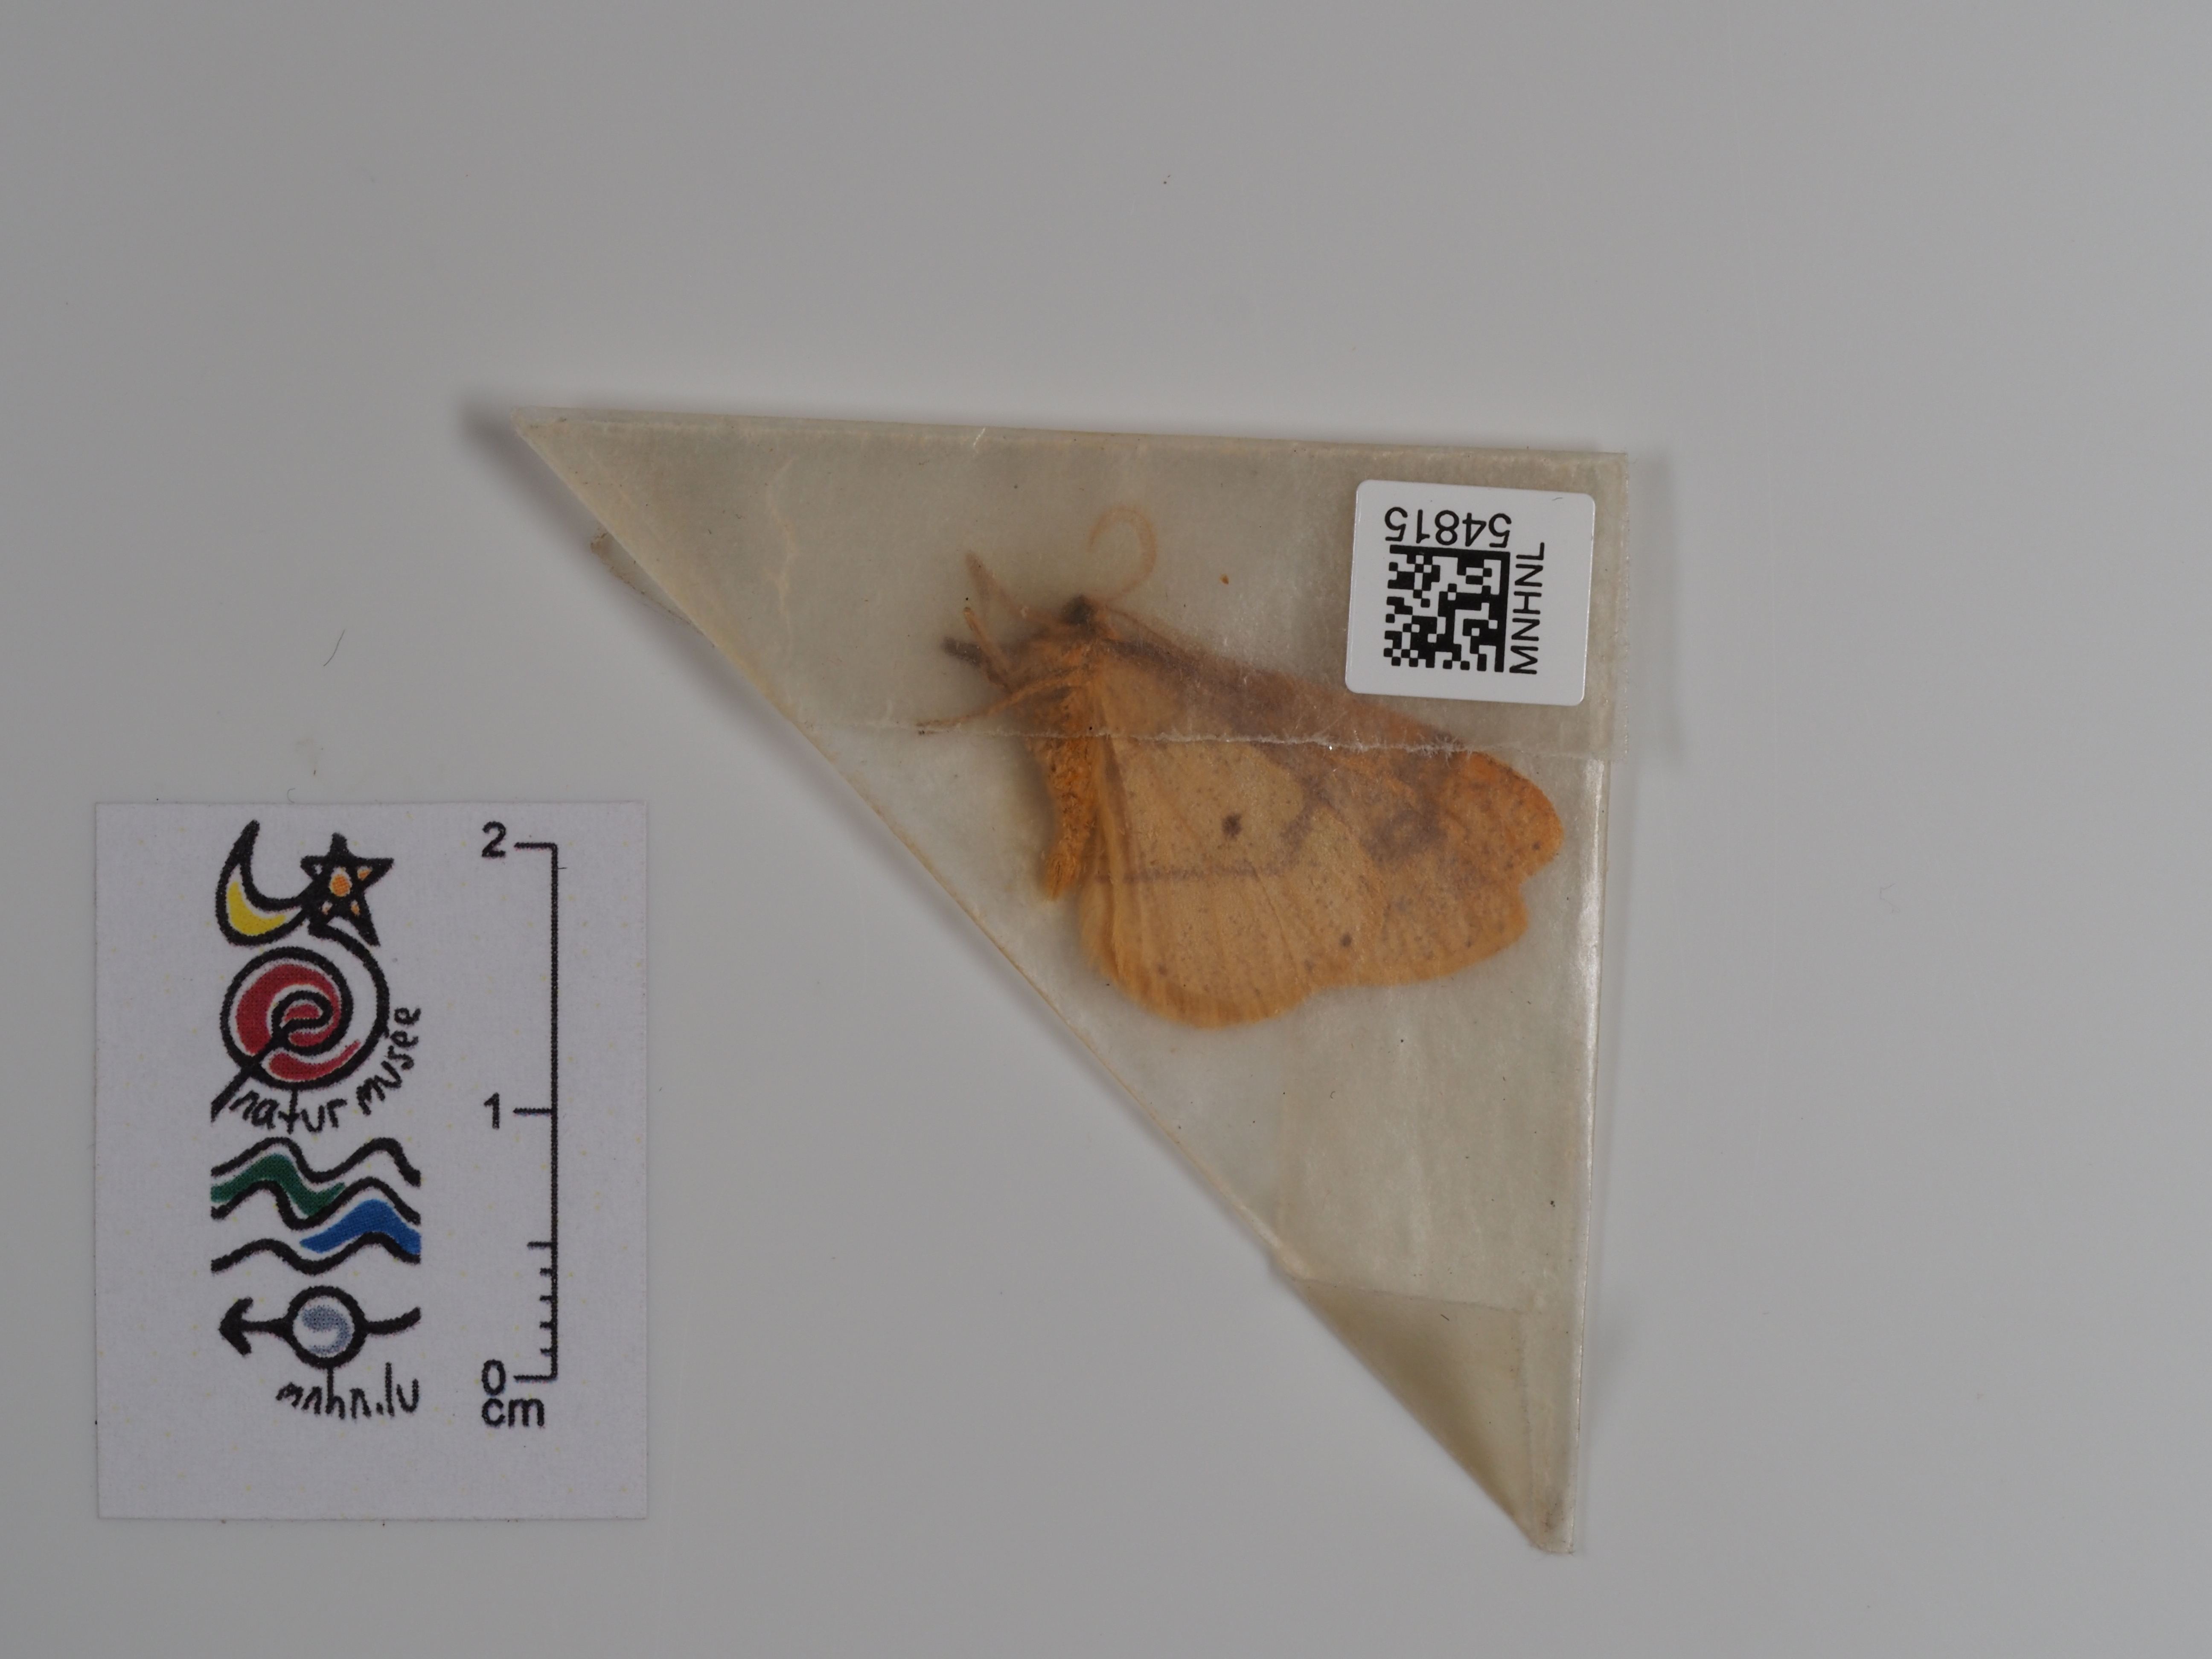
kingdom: Animalia
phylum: Arthropoda
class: Insecta
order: Lepidoptera
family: Geometridae
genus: Agriopis
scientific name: Agriopis aurantiaria
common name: Scarce umber
